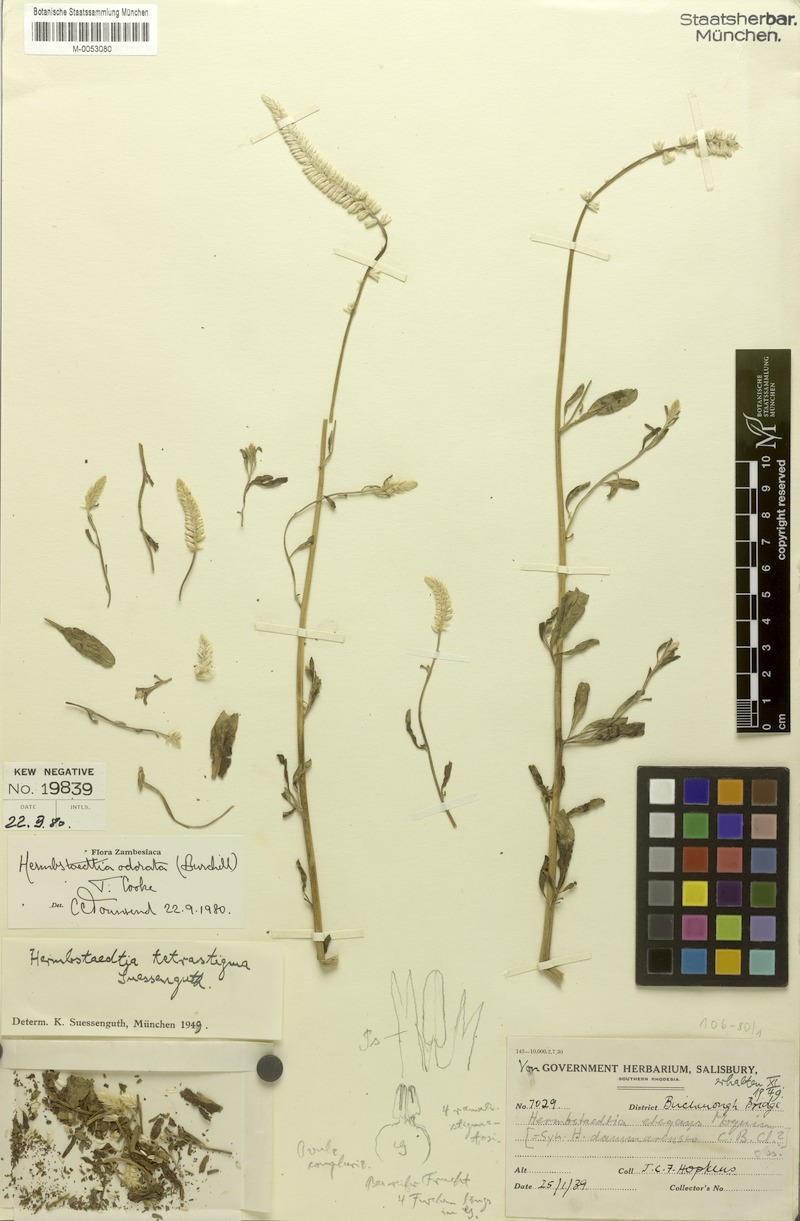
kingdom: Plantae
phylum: Tracheophyta
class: Magnoliopsida
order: Caryophyllales
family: Amaranthaceae
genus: Hermbstaedtia
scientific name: Hermbstaedtia odorata
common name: Guineaflower
